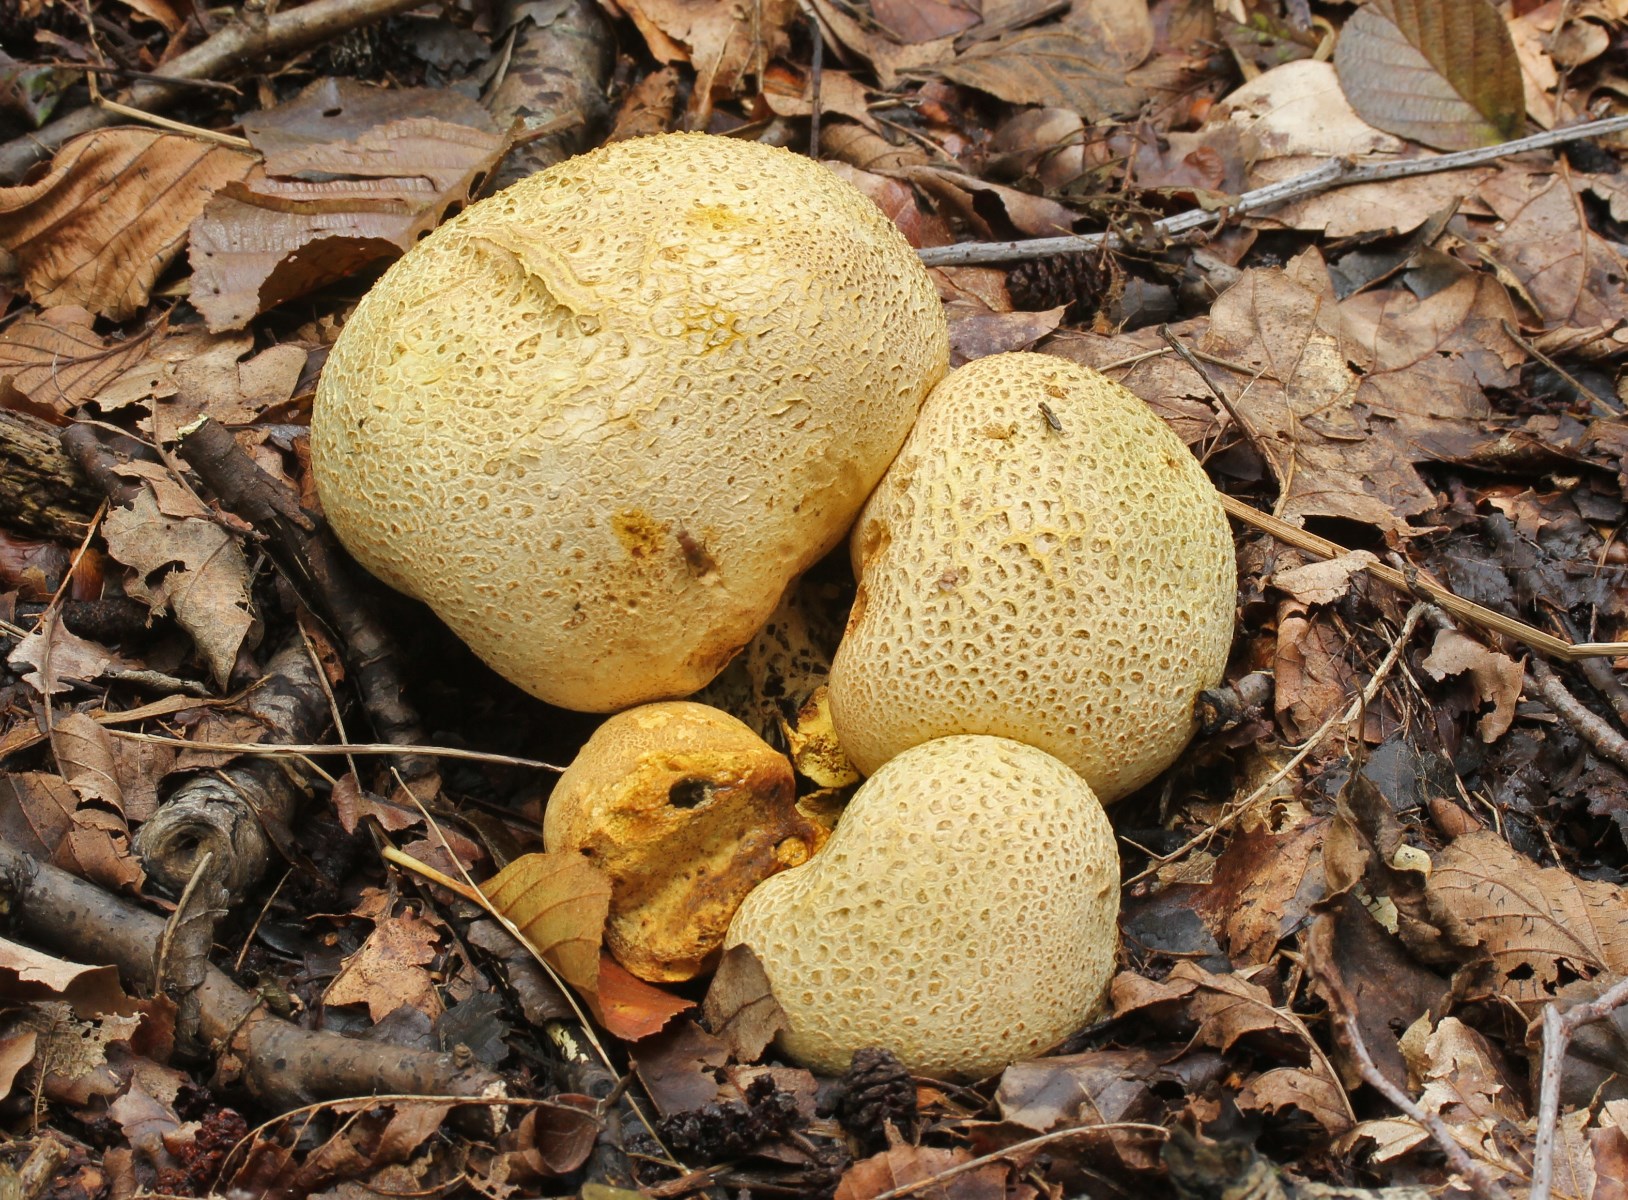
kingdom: Fungi
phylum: Basidiomycota
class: Agaricomycetes
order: Boletales
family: Sclerodermataceae
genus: Scleroderma
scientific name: Scleroderma citrinum
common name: almindelig bruskbold
